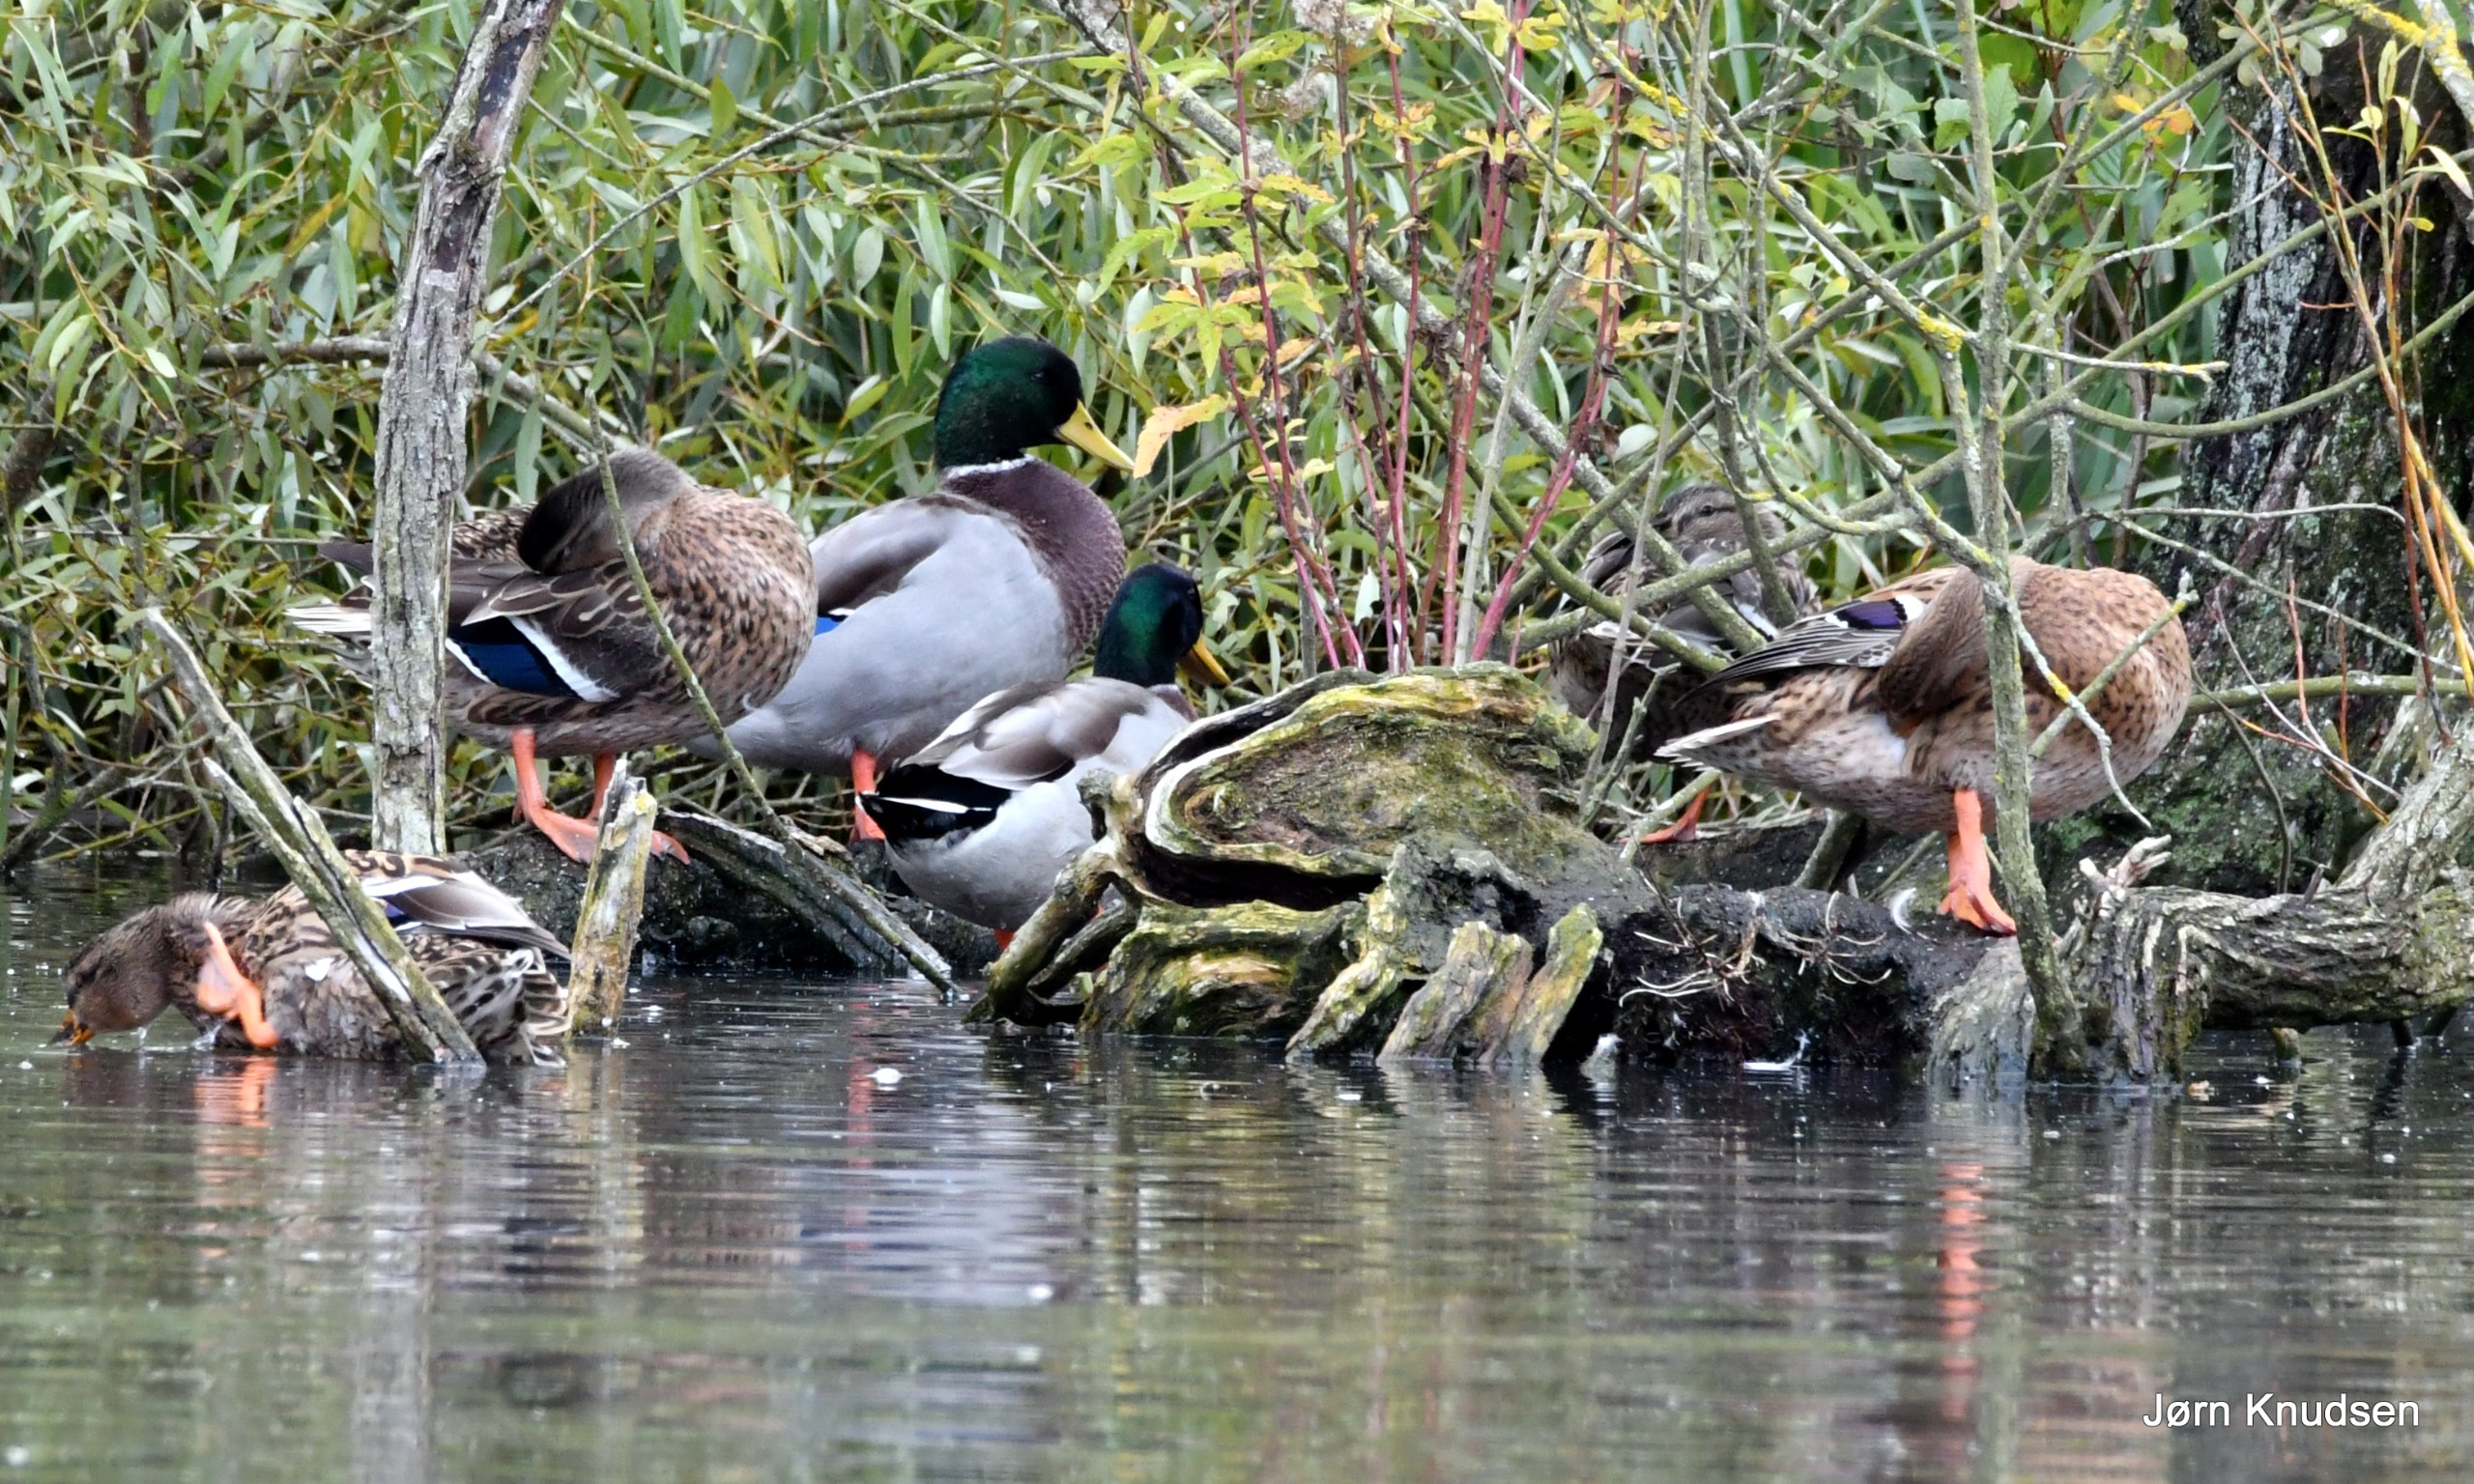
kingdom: Animalia
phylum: Chordata
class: Aves
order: Anseriformes
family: Anatidae
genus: Anas
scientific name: Anas platyrhynchos
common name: Gråand
